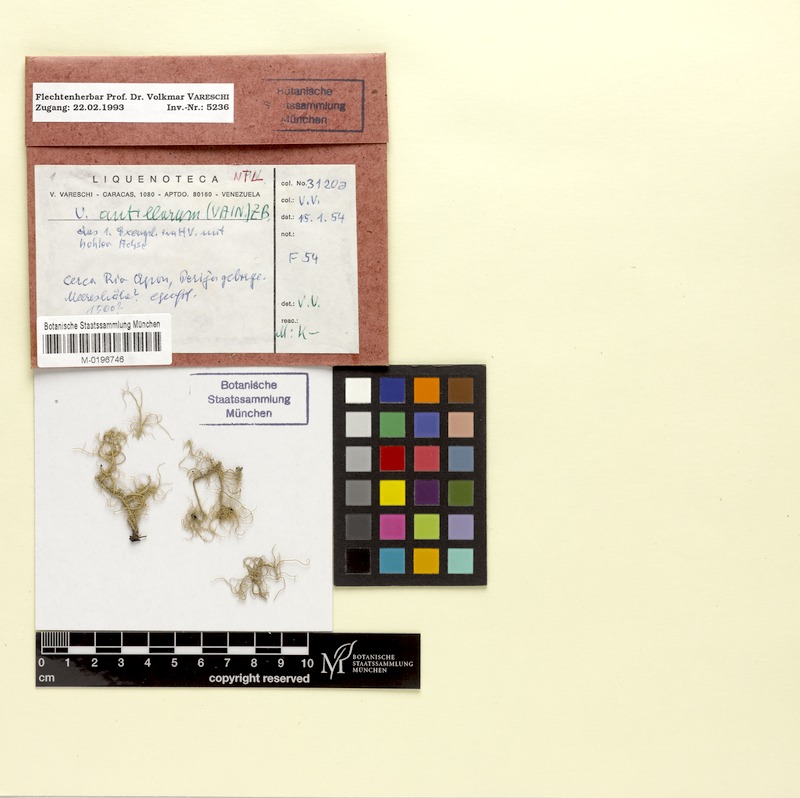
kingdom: Fungi
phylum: Ascomycota
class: Lecanoromycetes
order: Lecanorales
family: Parmeliaceae
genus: Eumitria
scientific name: Eumitria baileyi
